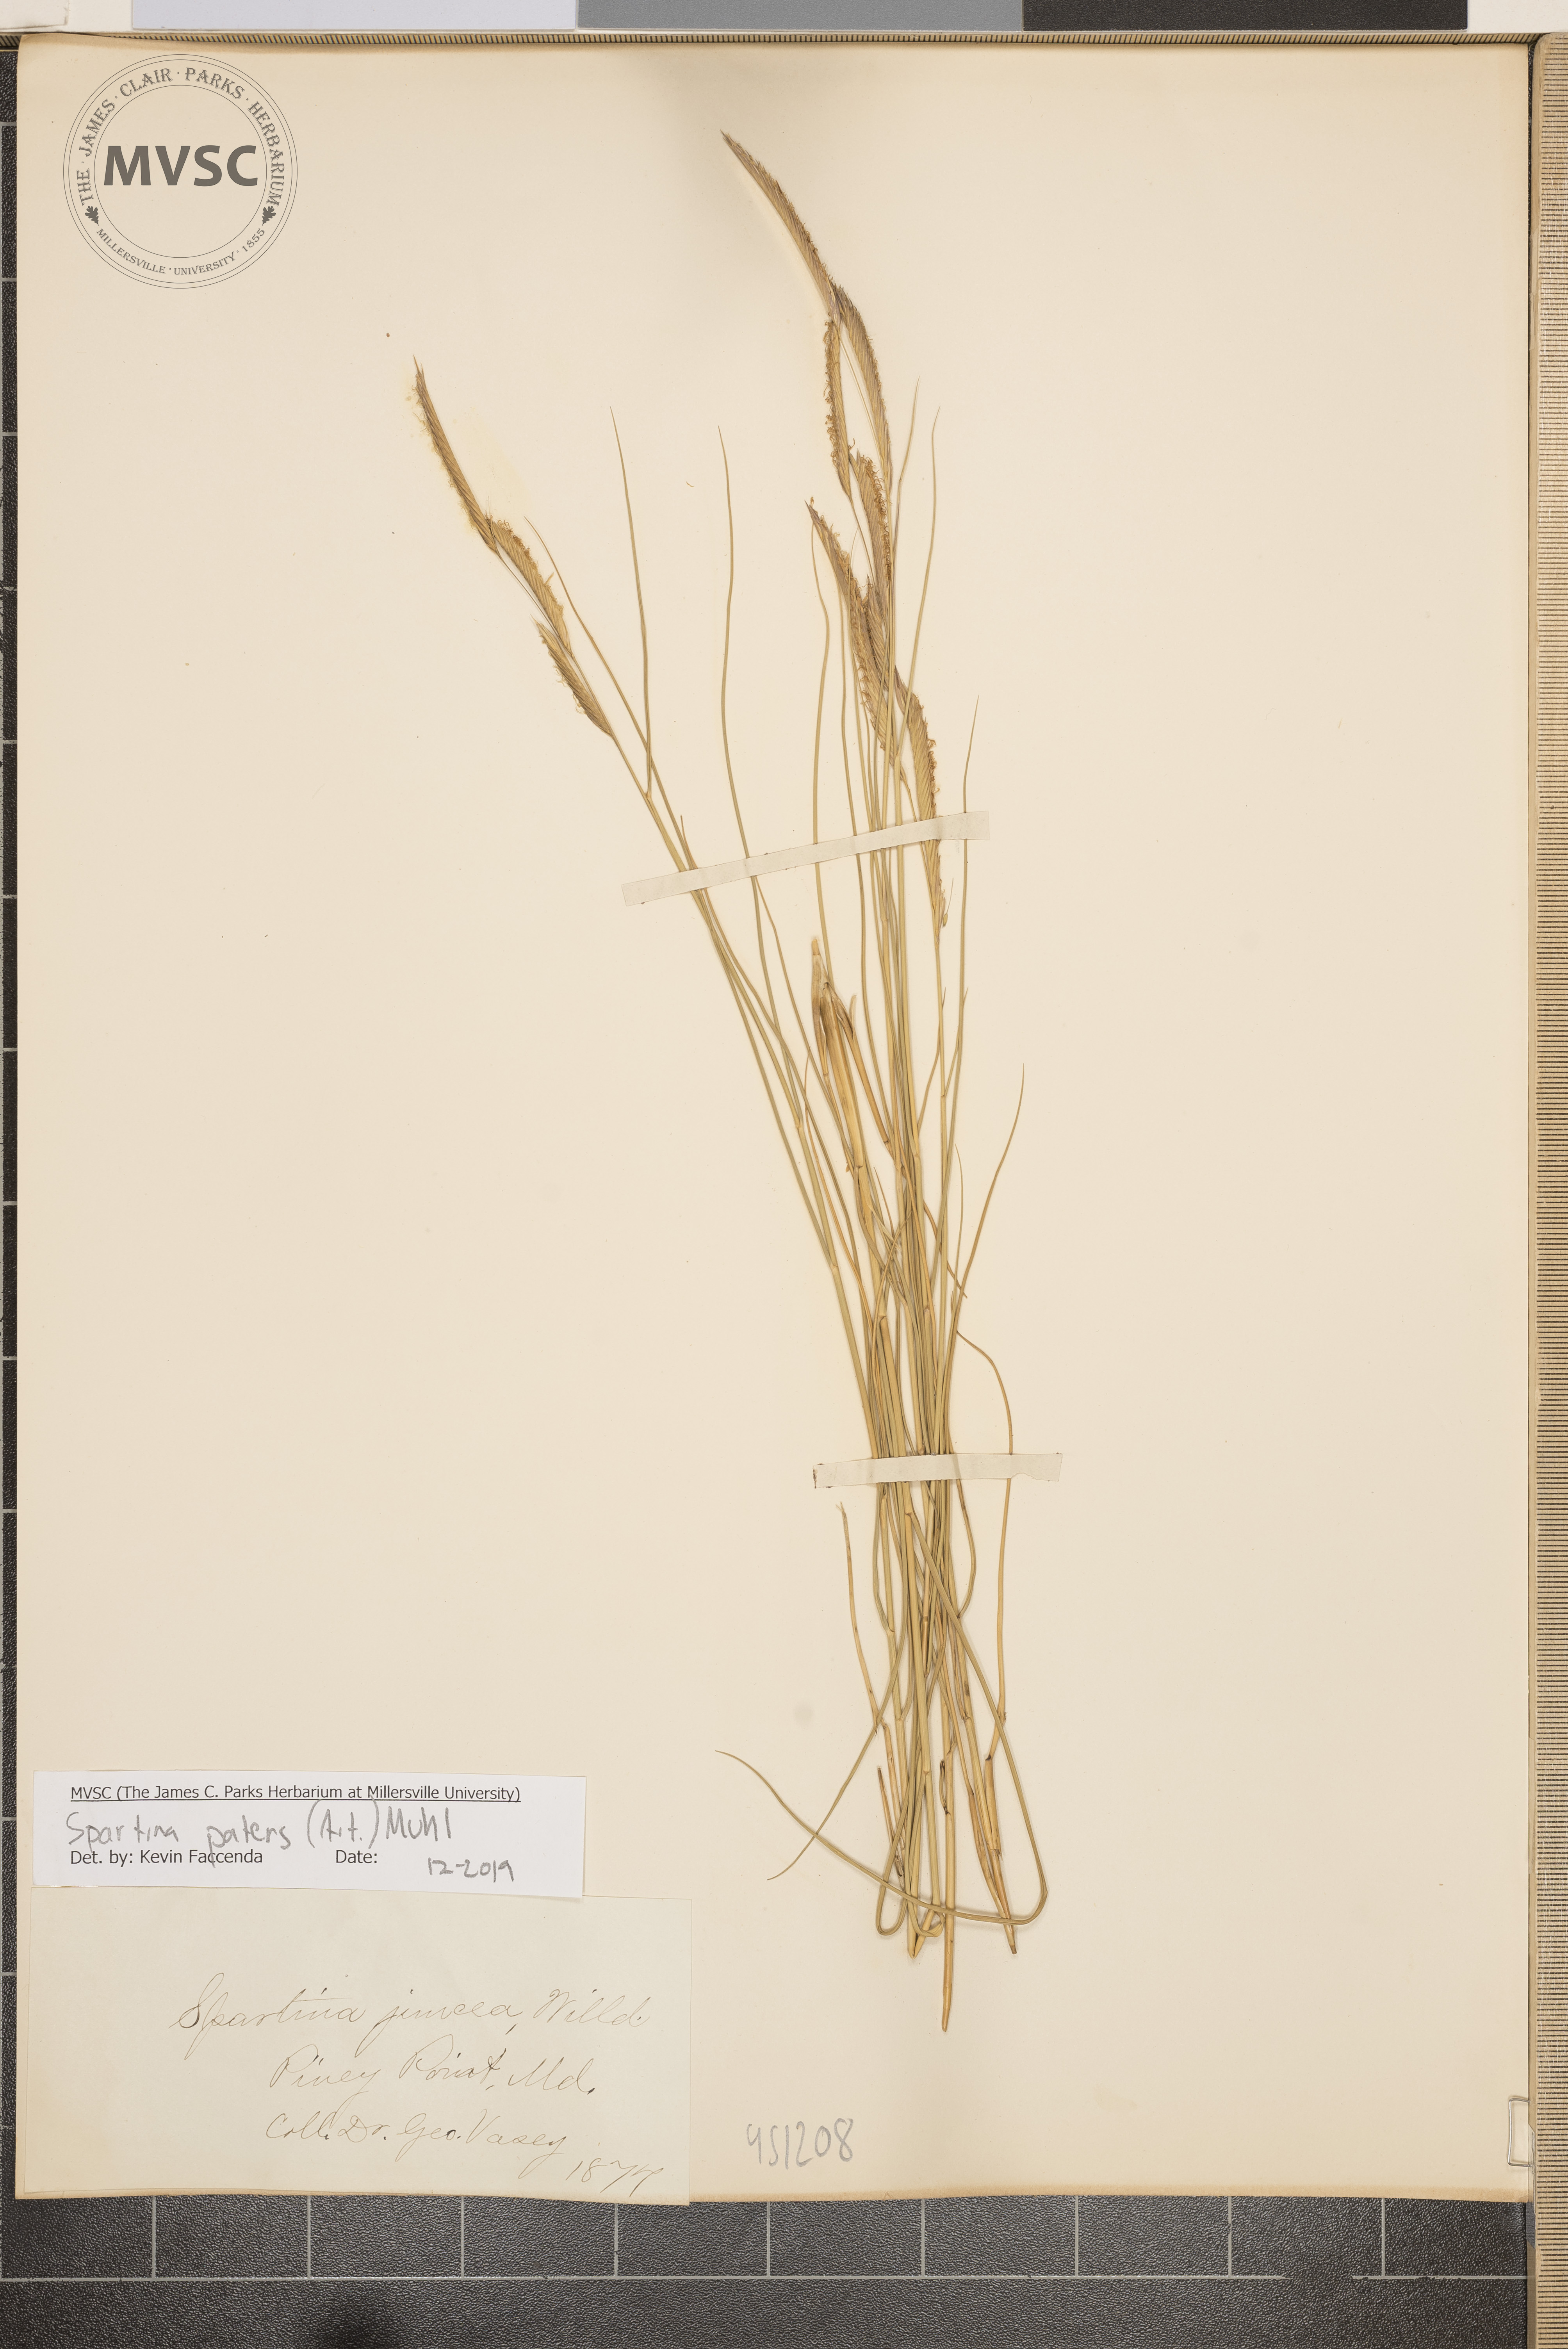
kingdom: Plantae
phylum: Tracheophyta
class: Liliopsida
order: Poales
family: Poaceae
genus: Sporobolus
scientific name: Sporobolus pumilus
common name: Highwater grass
